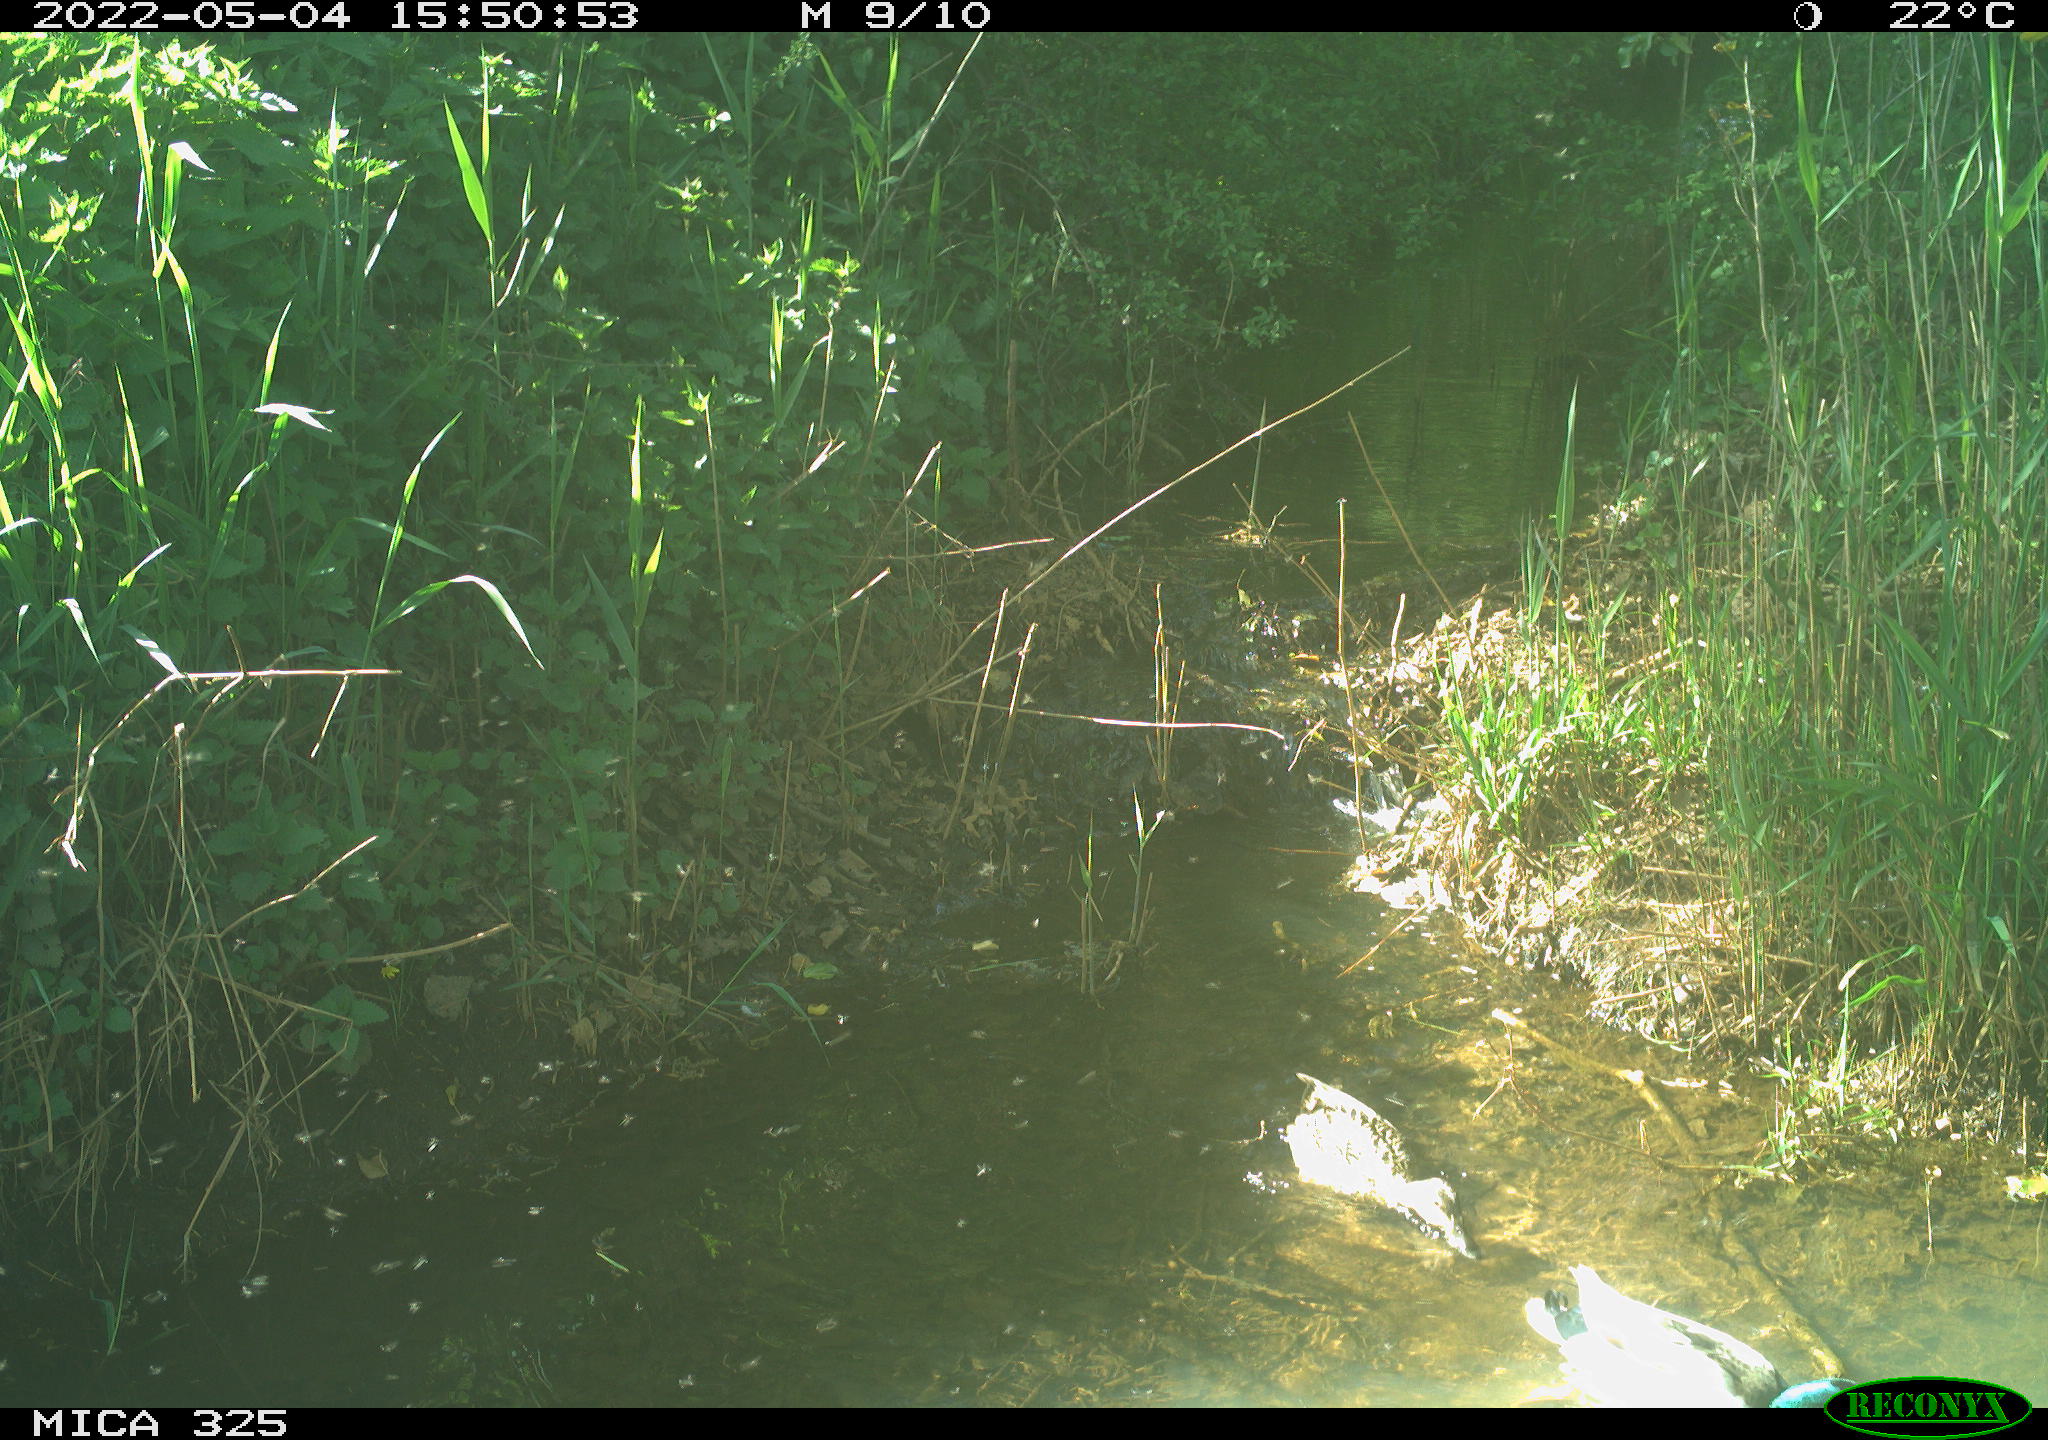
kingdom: Animalia
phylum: Chordata
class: Aves
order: Anseriformes
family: Anatidae
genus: Anas
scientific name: Anas platyrhynchos
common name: Mallard
